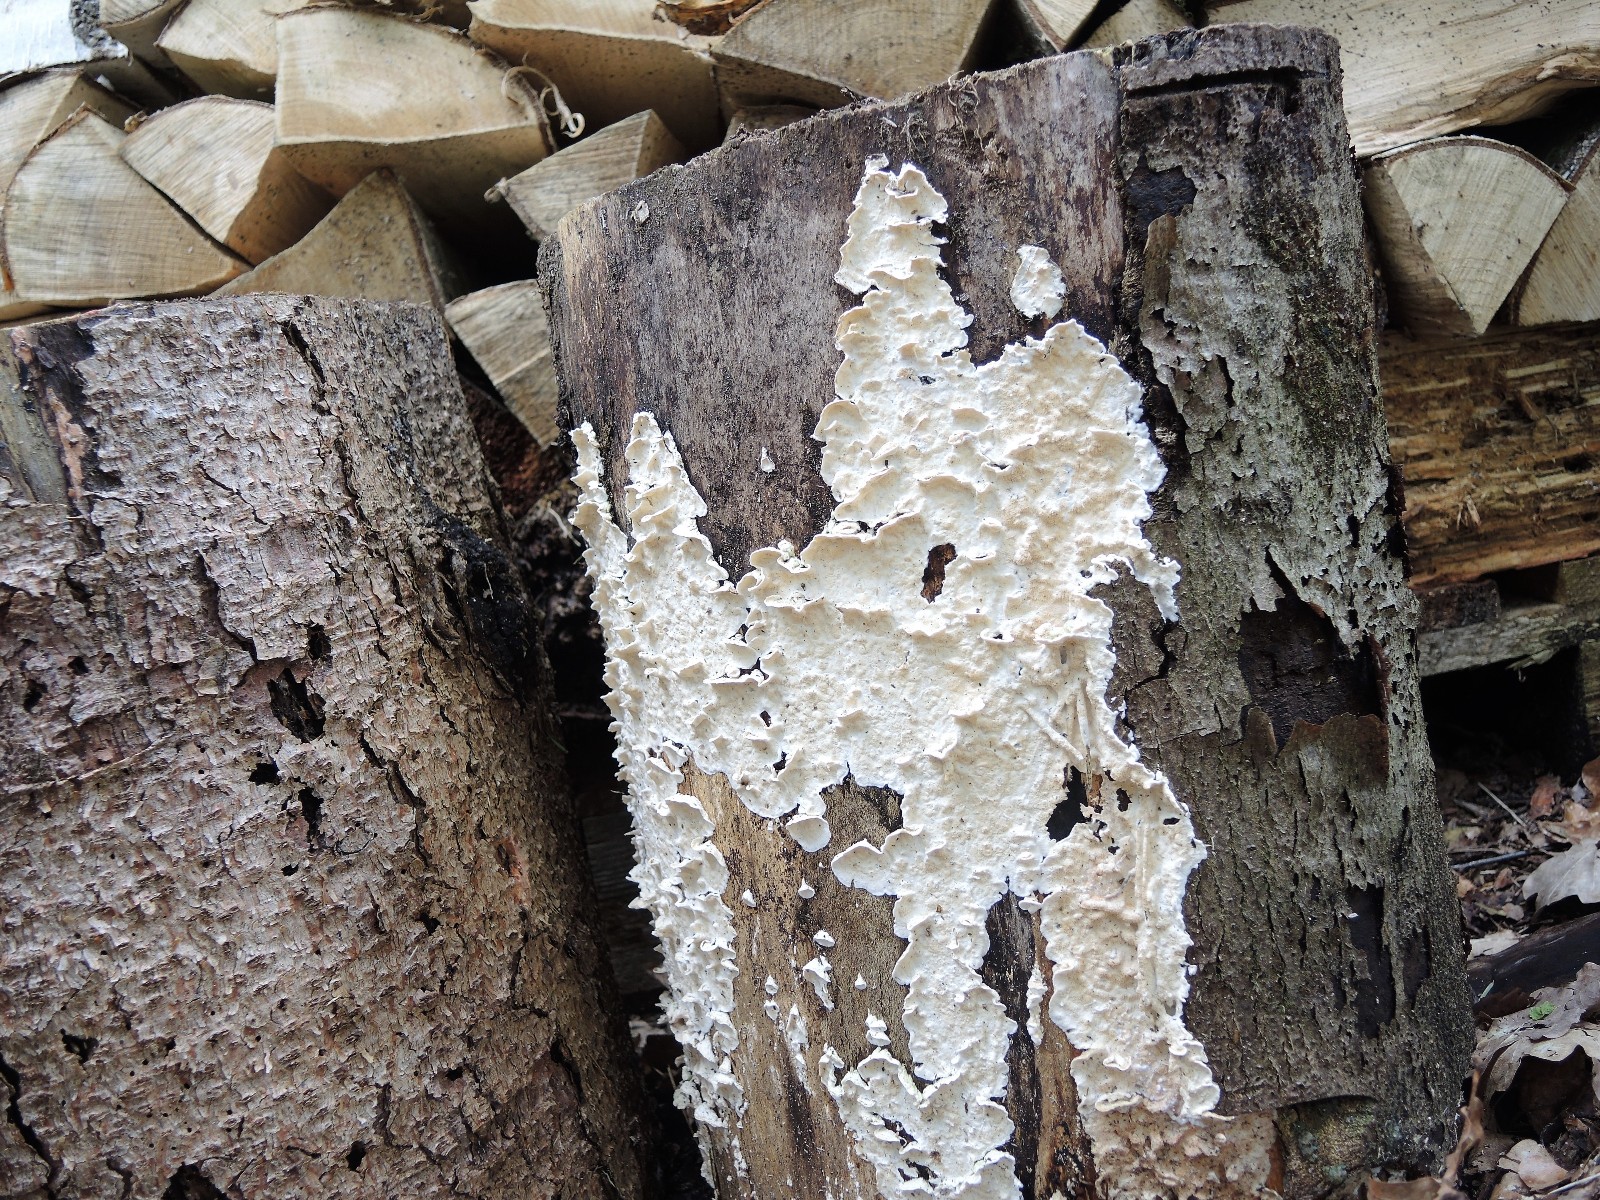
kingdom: Fungi
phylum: Basidiomycota
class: Agaricomycetes
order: Polyporales
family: Incrustoporiaceae
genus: Skeletocutis
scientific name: Skeletocutis amorpha
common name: orange krystalporesvamp
